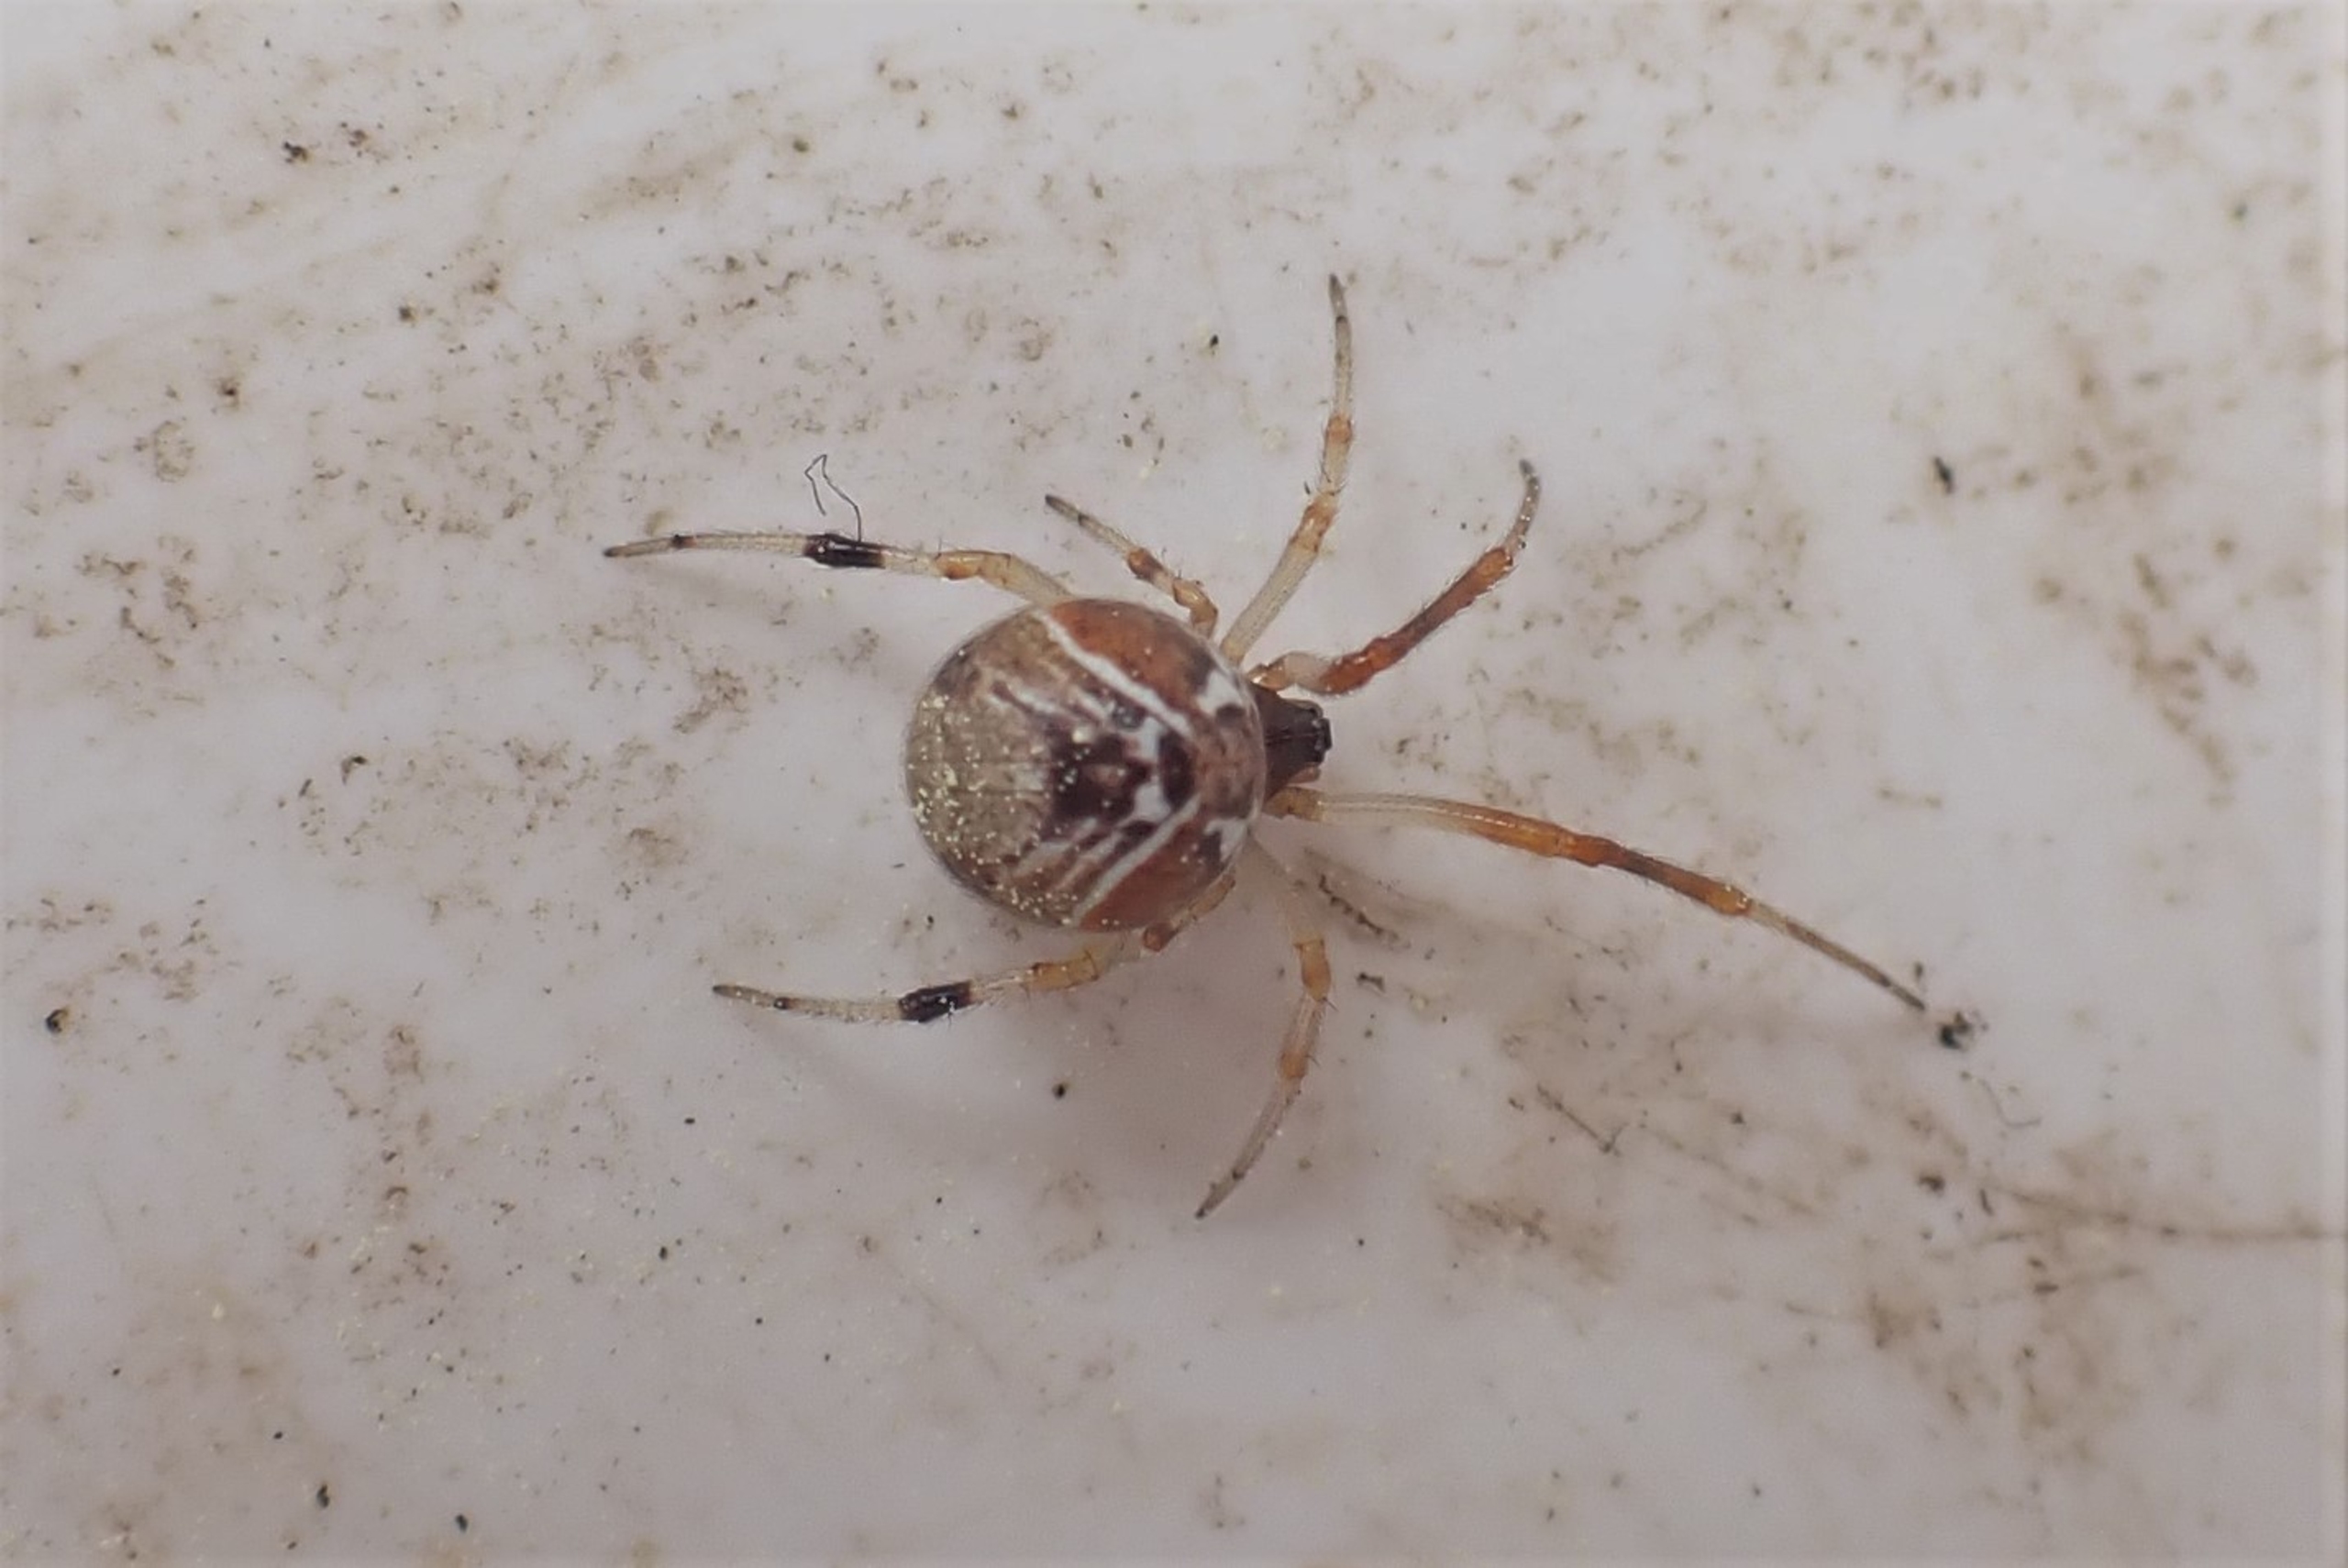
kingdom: Animalia
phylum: Arthropoda
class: Arachnida
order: Araneae
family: Theridiidae
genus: Parasteatoda
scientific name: Parasteatoda lunata
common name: Bladhyttespinder
